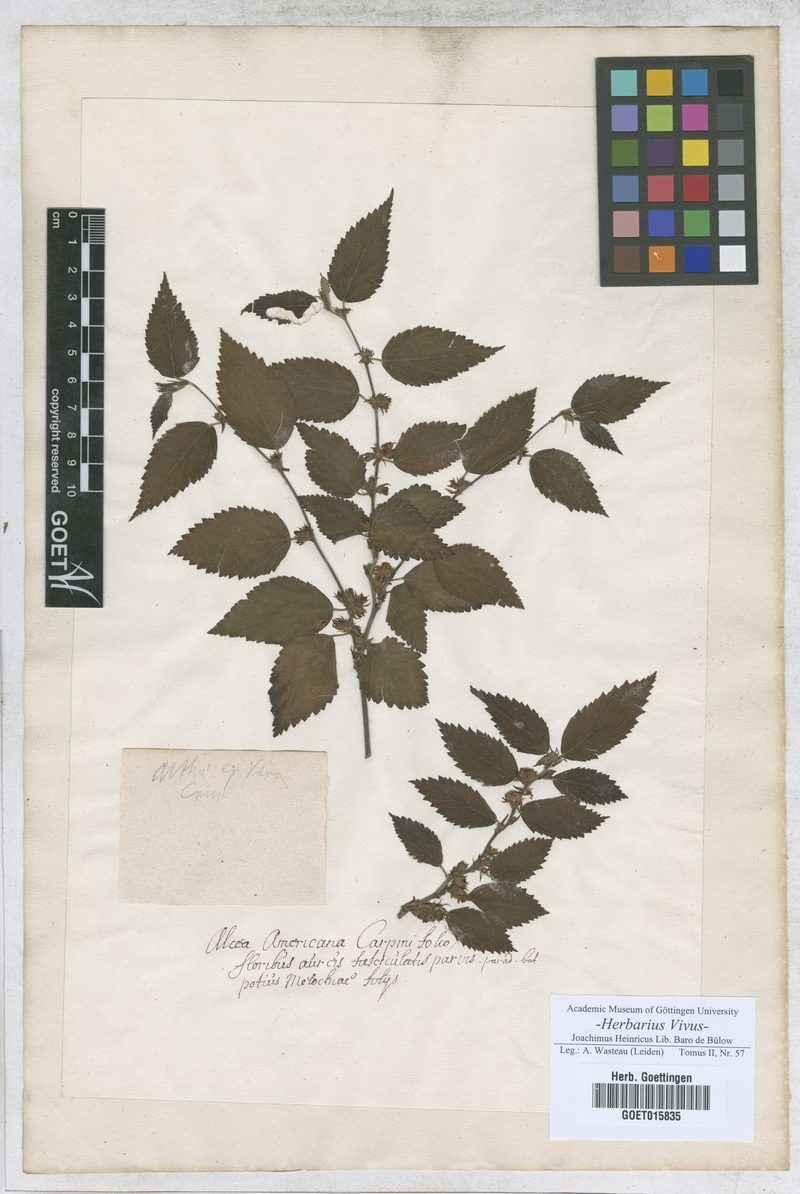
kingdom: Plantae
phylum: Tracheophyta
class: Magnoliopsida
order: Malvales
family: Malvaceae
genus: Alcea
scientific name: Alcea
